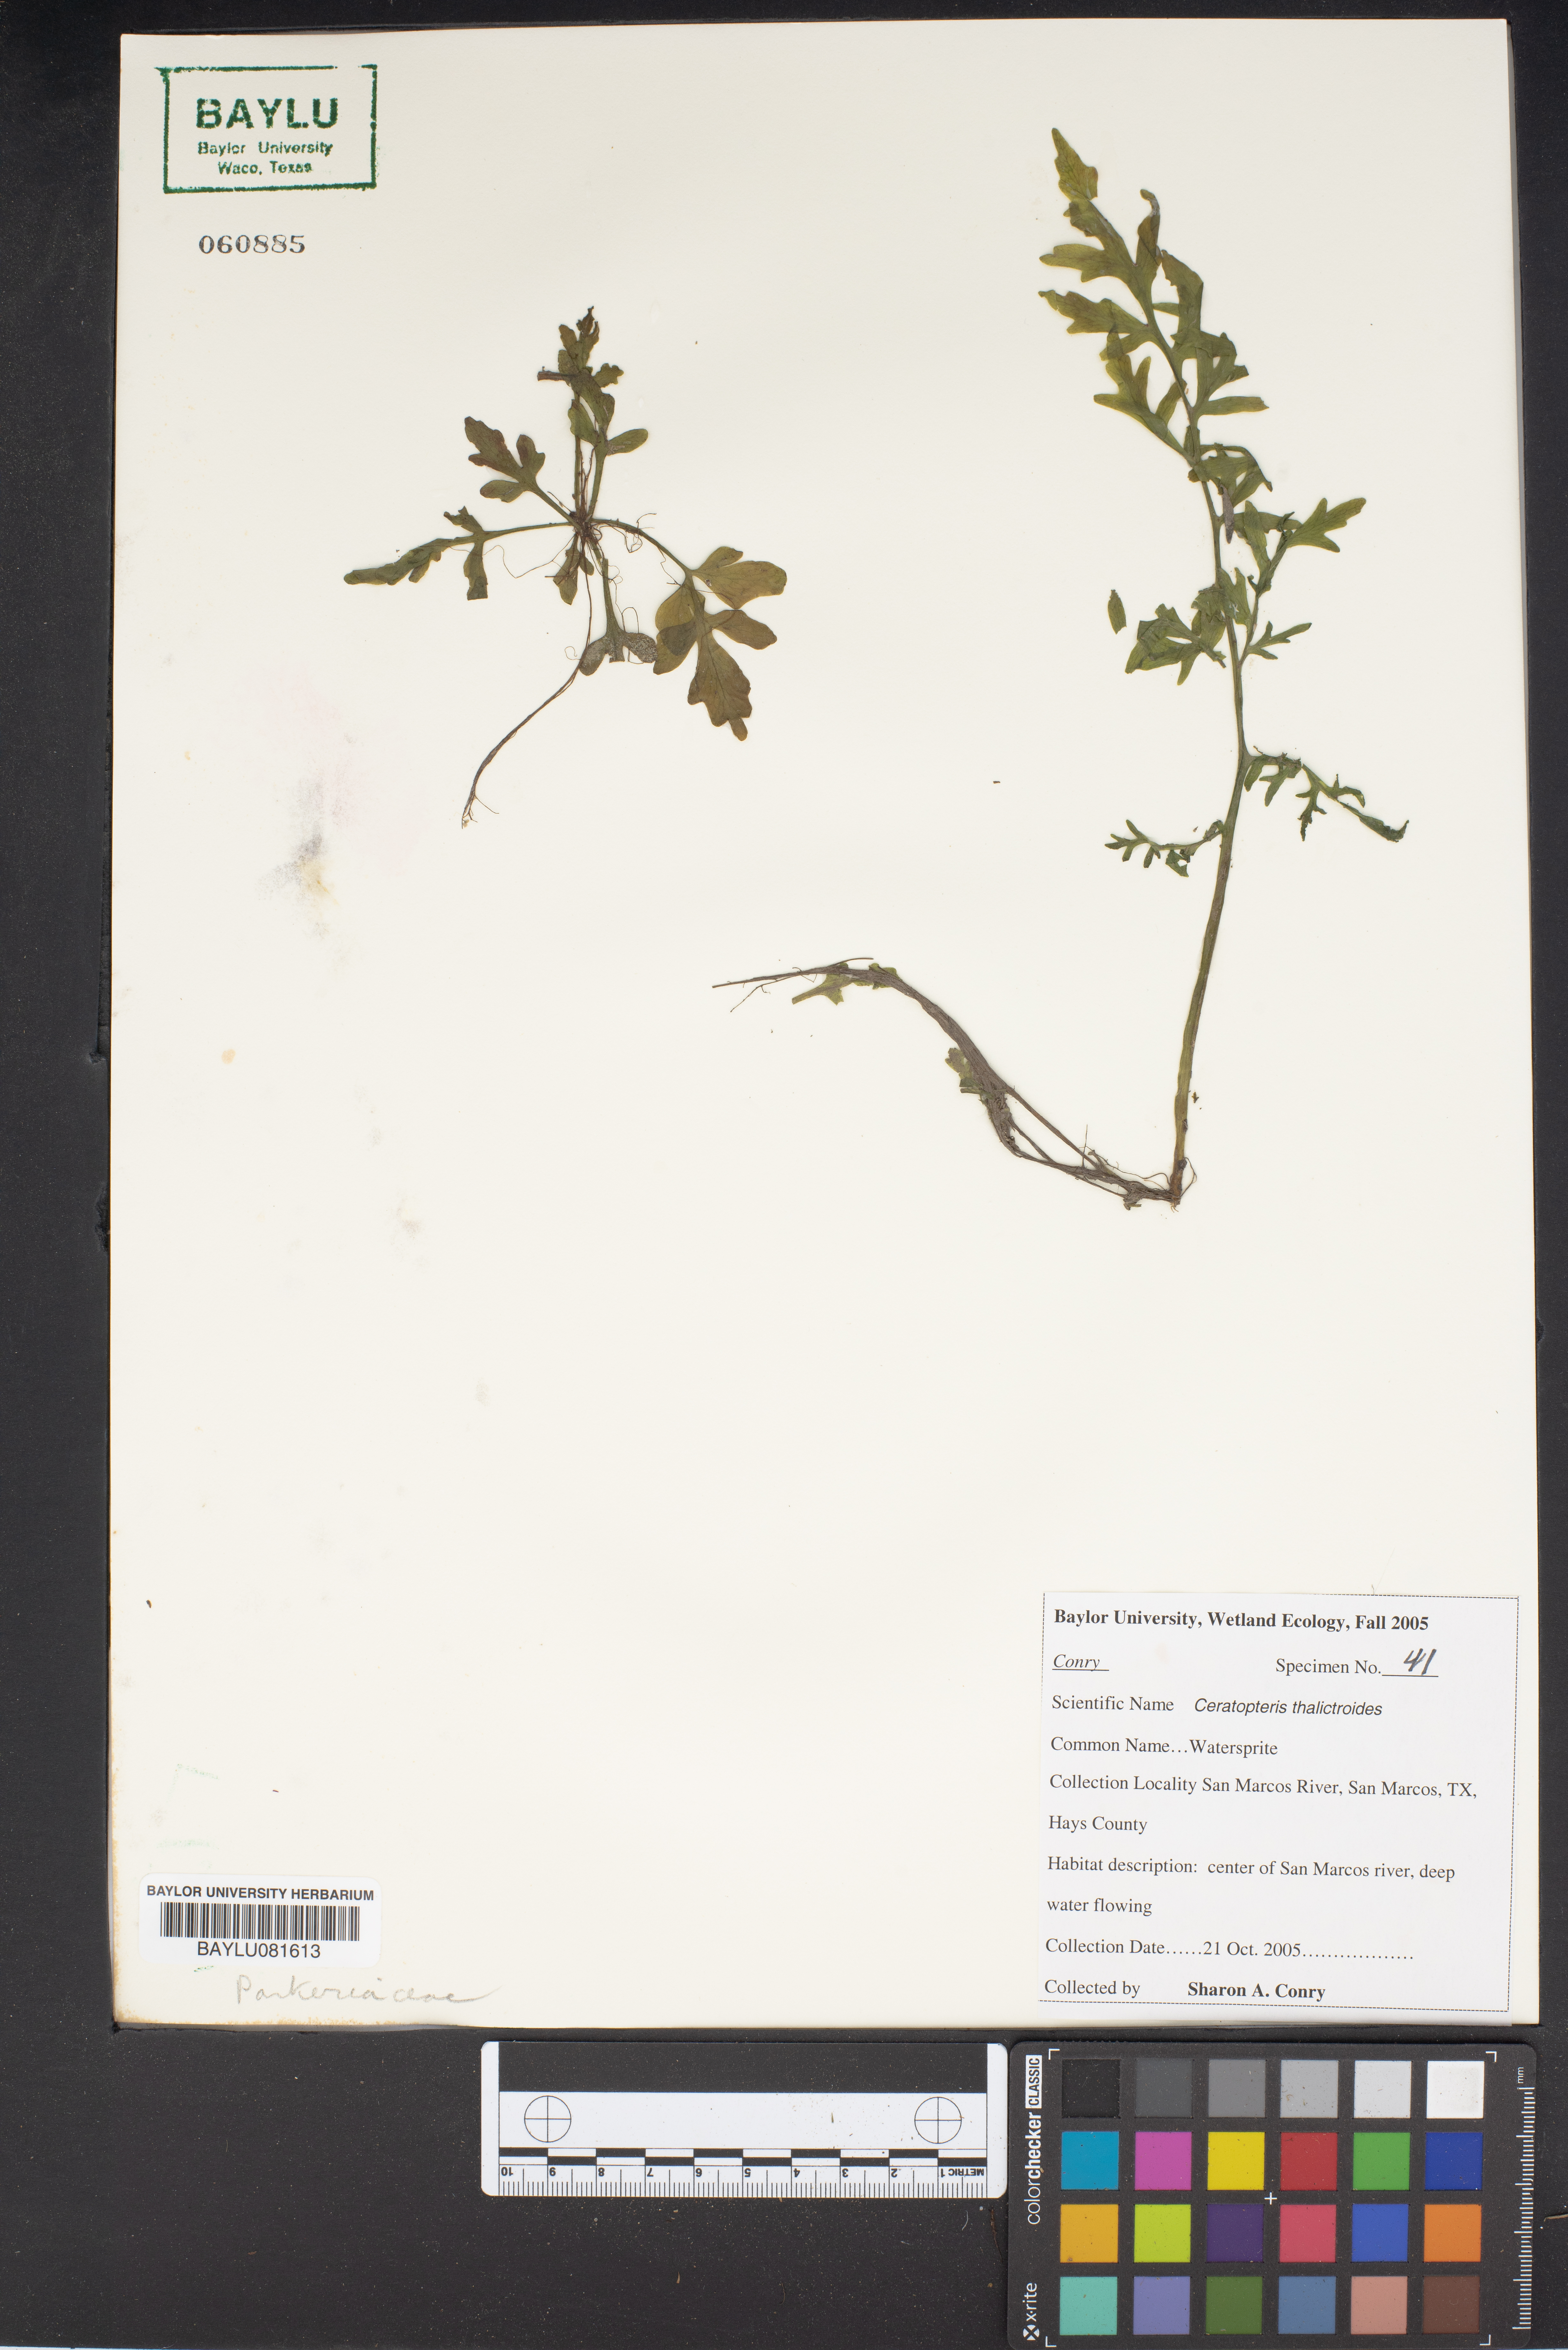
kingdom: Plantae
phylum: Tracheophyta
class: Polypodiopsida
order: Polypodiales
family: Pteridaceae
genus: Ceratopteris
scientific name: Ceratopteris thalictroides
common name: Water fern
